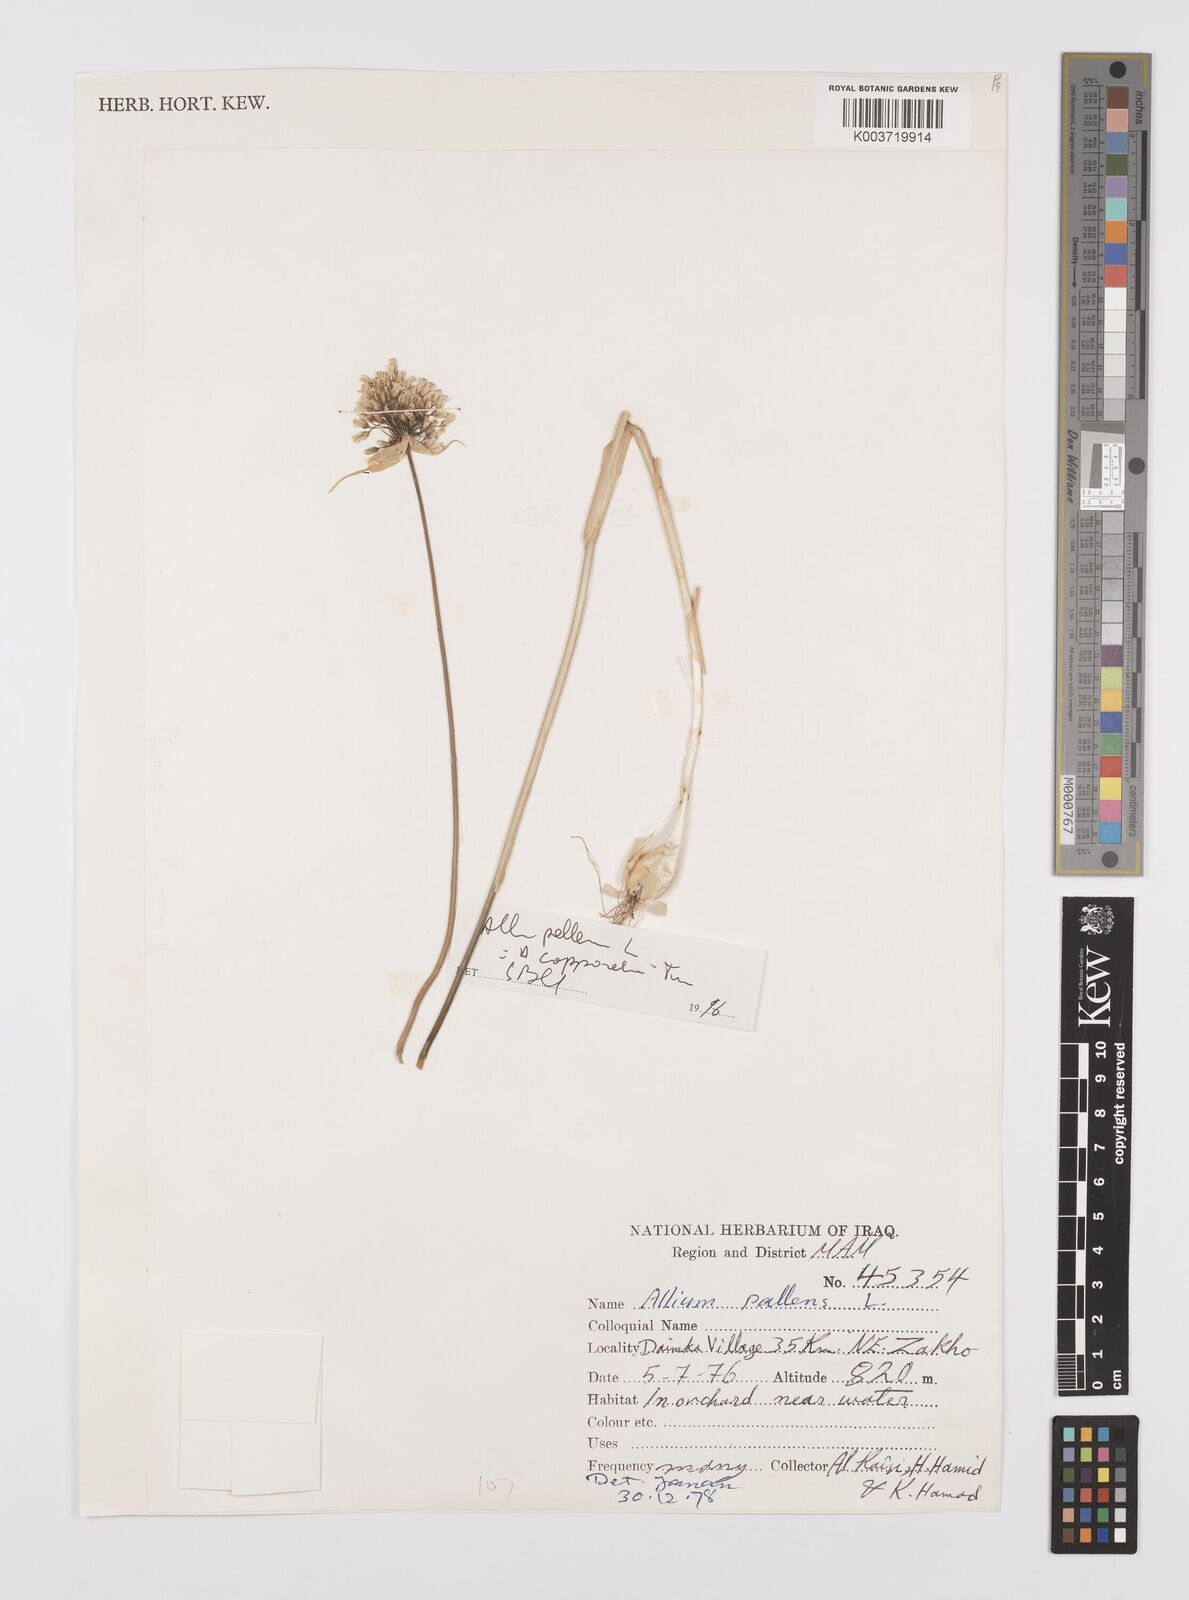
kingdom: Plantae
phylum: Tracheophyta
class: Liliopsida
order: Asparagales
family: Amaryllidaceae
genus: Allium
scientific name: Allium pallens
